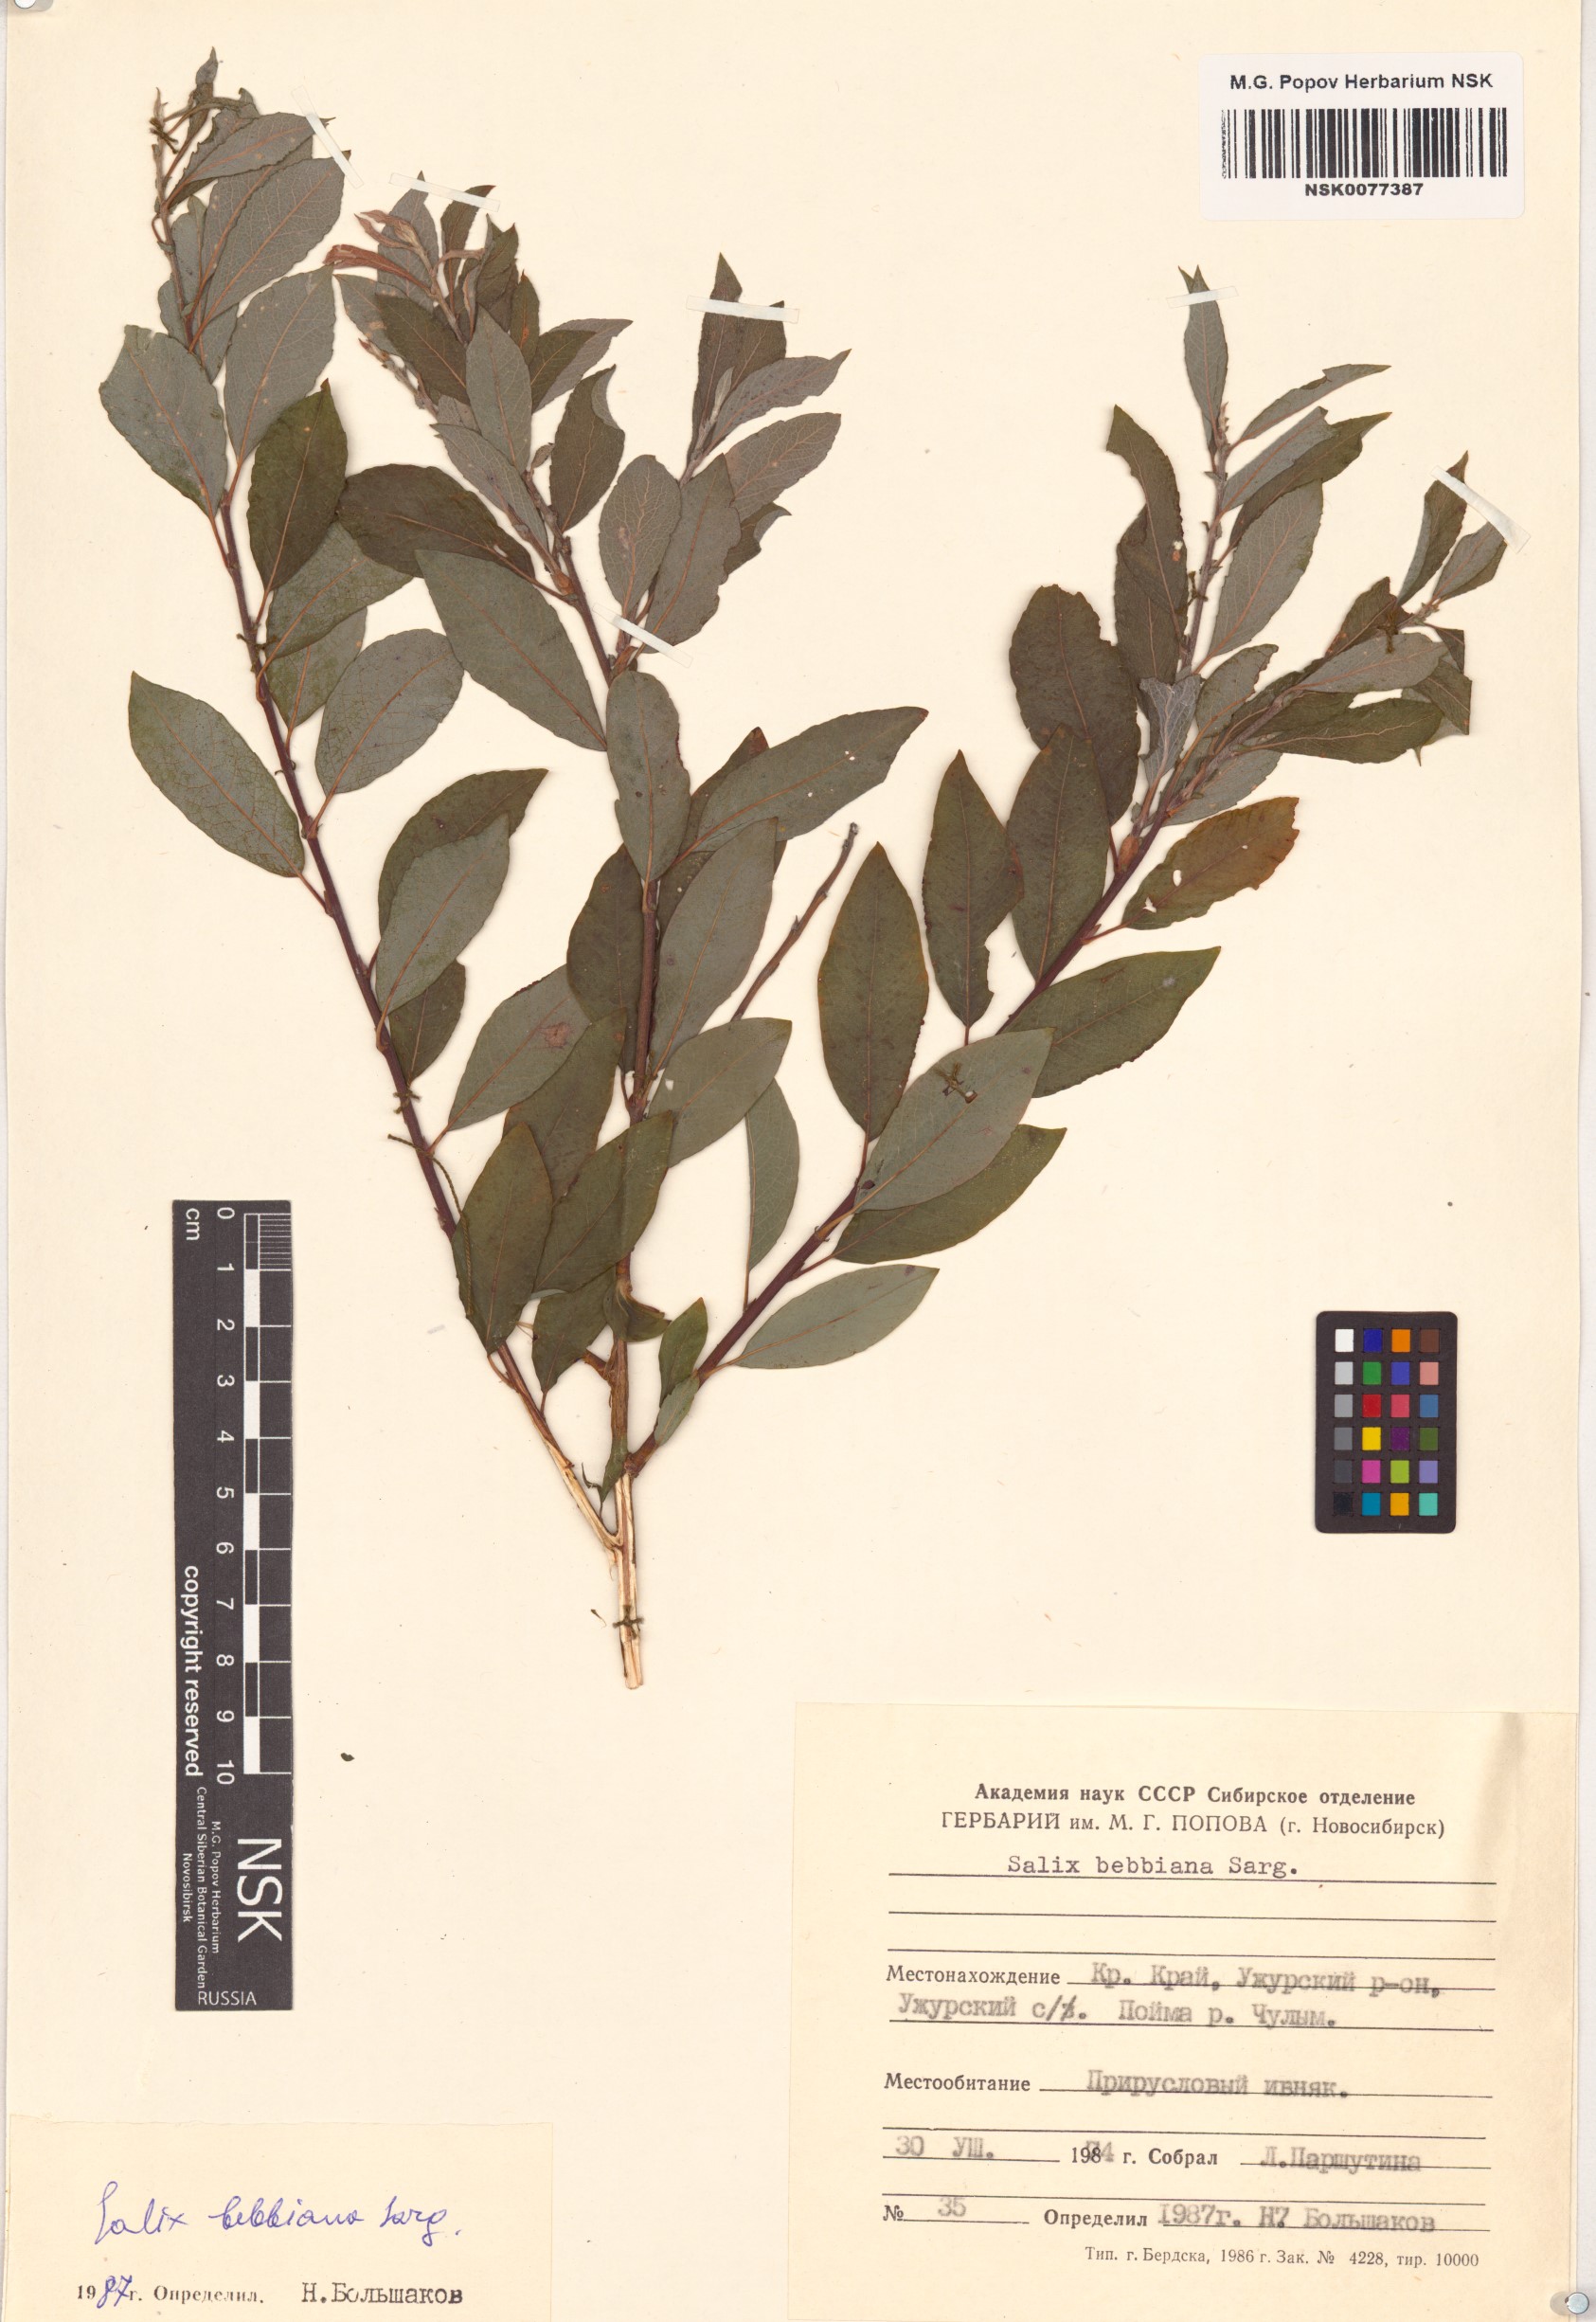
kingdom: Plantae
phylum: Tracheophyta
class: Magnoliopsida
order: Malpighiales
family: Salicaceae
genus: Salix
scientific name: Salix bebbiana
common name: Bebb's willow
